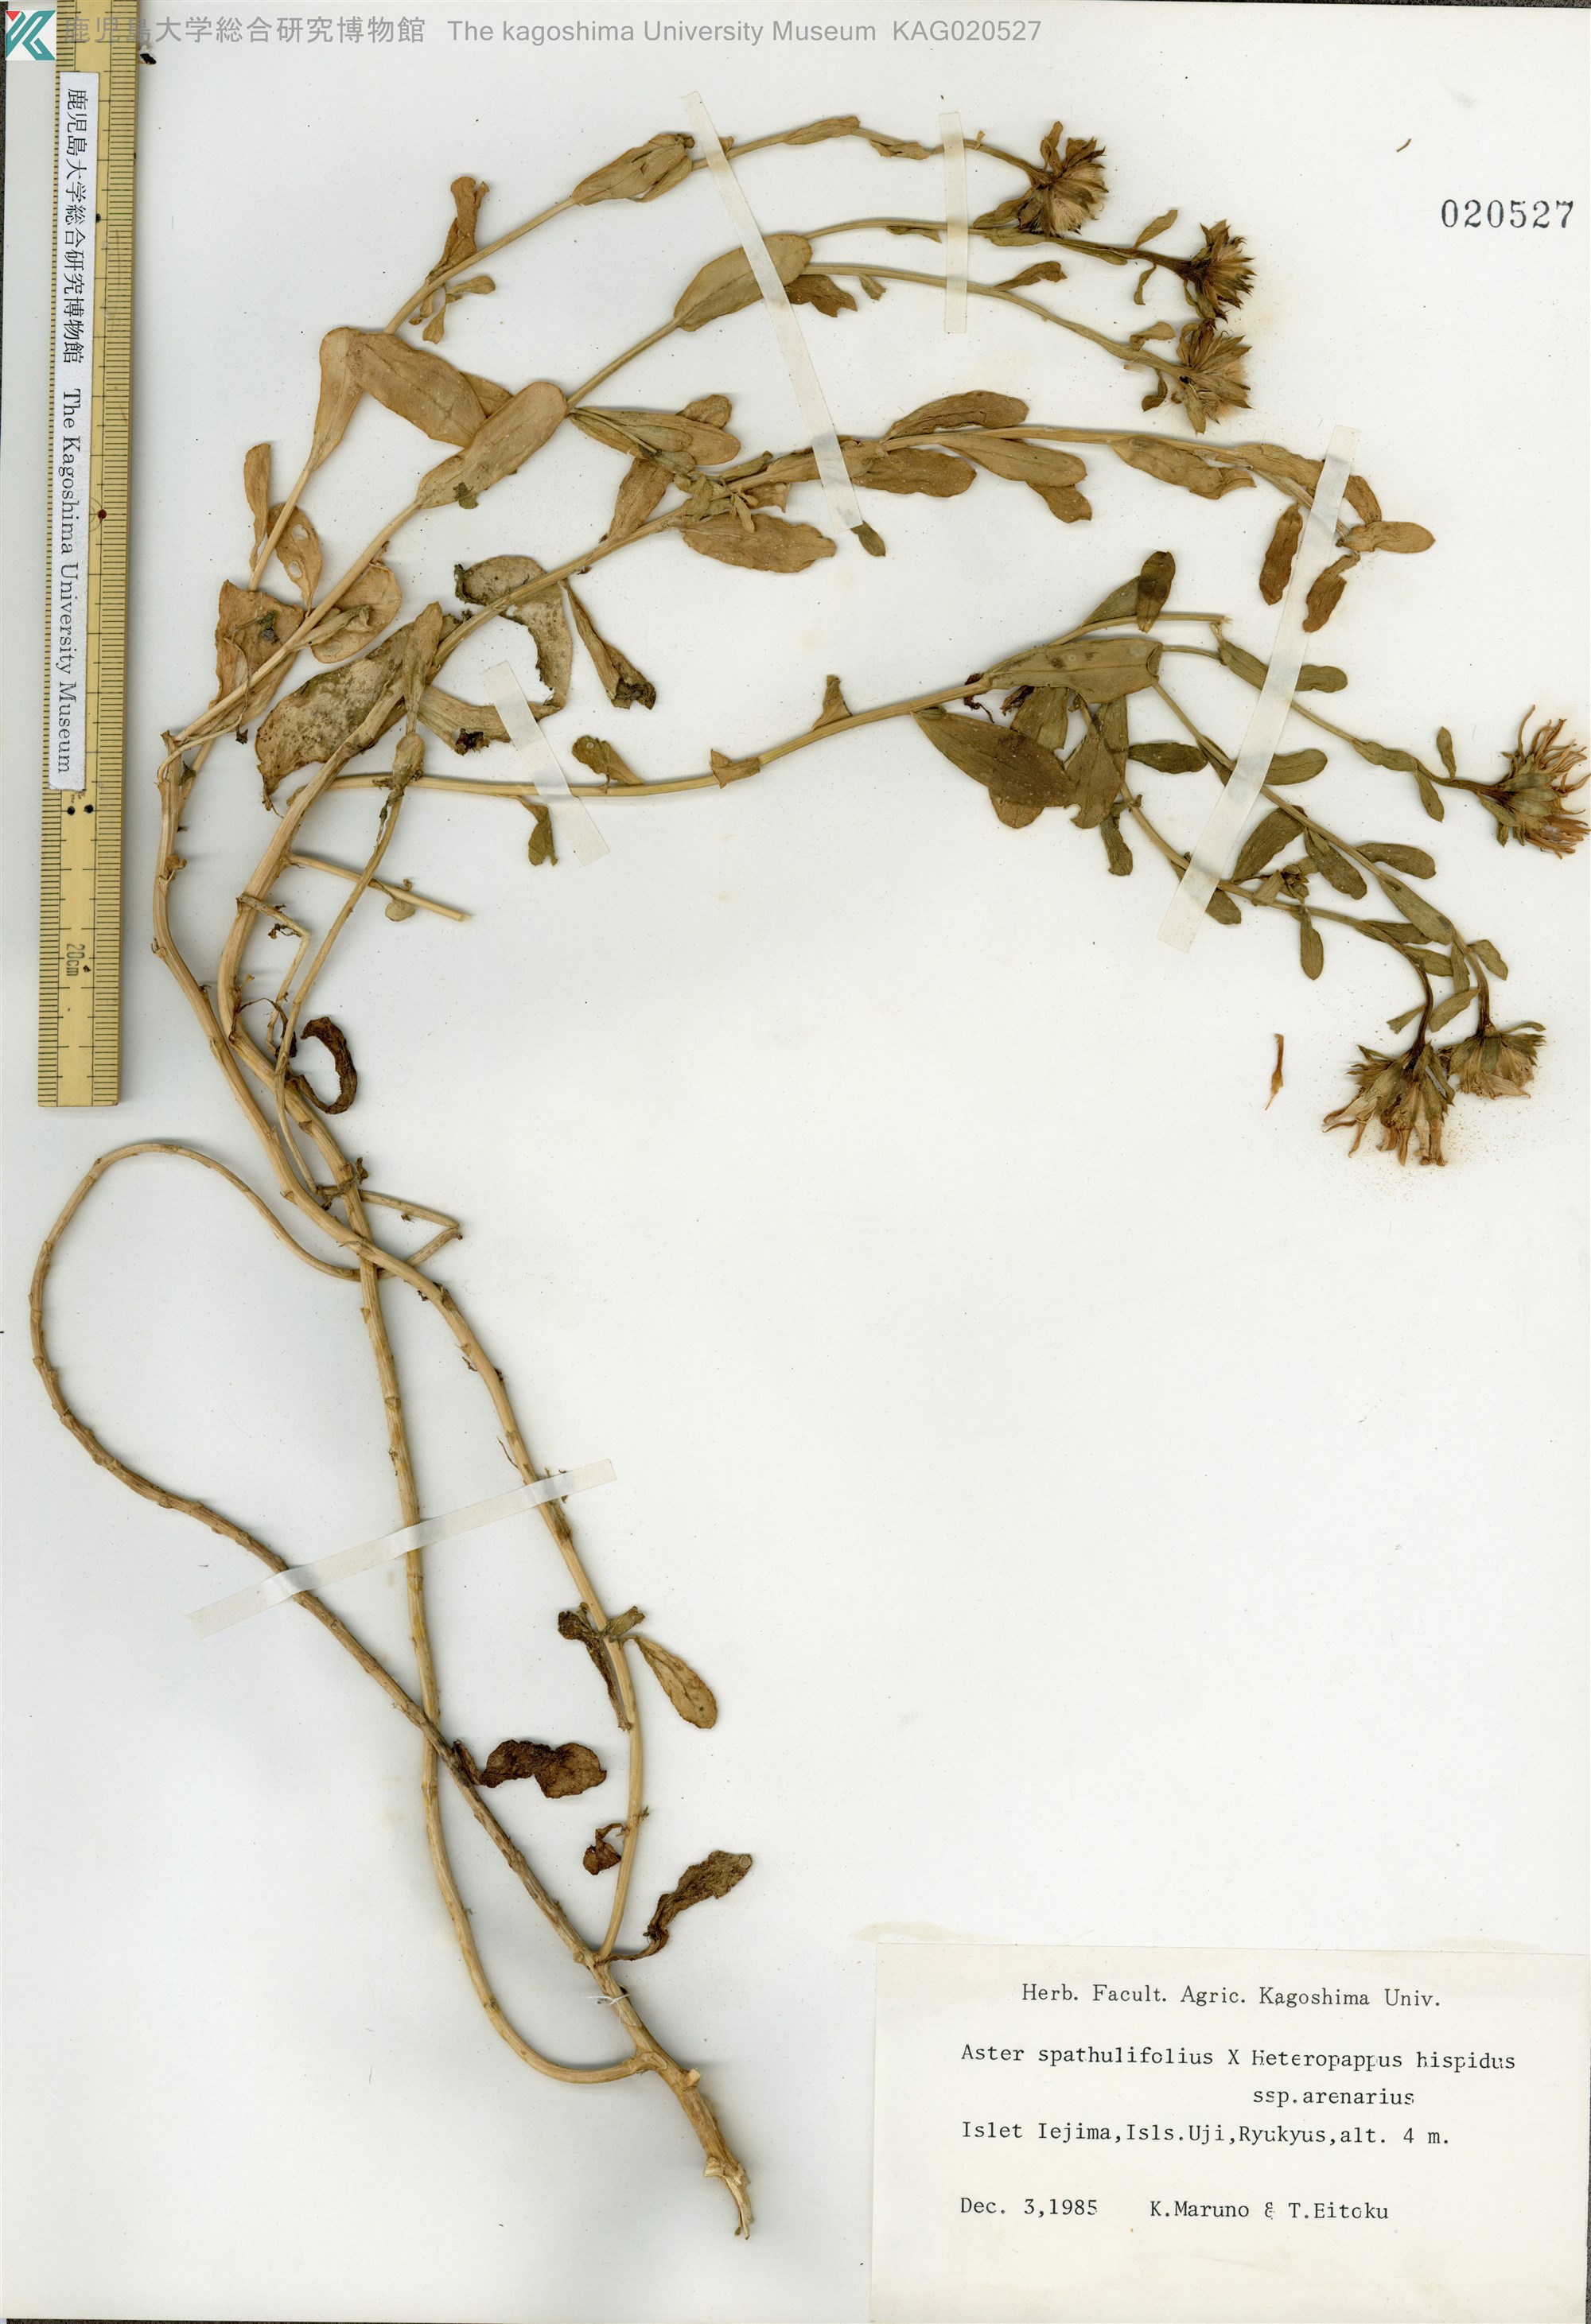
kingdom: Plantae
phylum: Tracheophyta
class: Magnoliopsida
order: Asterales
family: Asteraceae
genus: Aster
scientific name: Aster ujiinsularis
